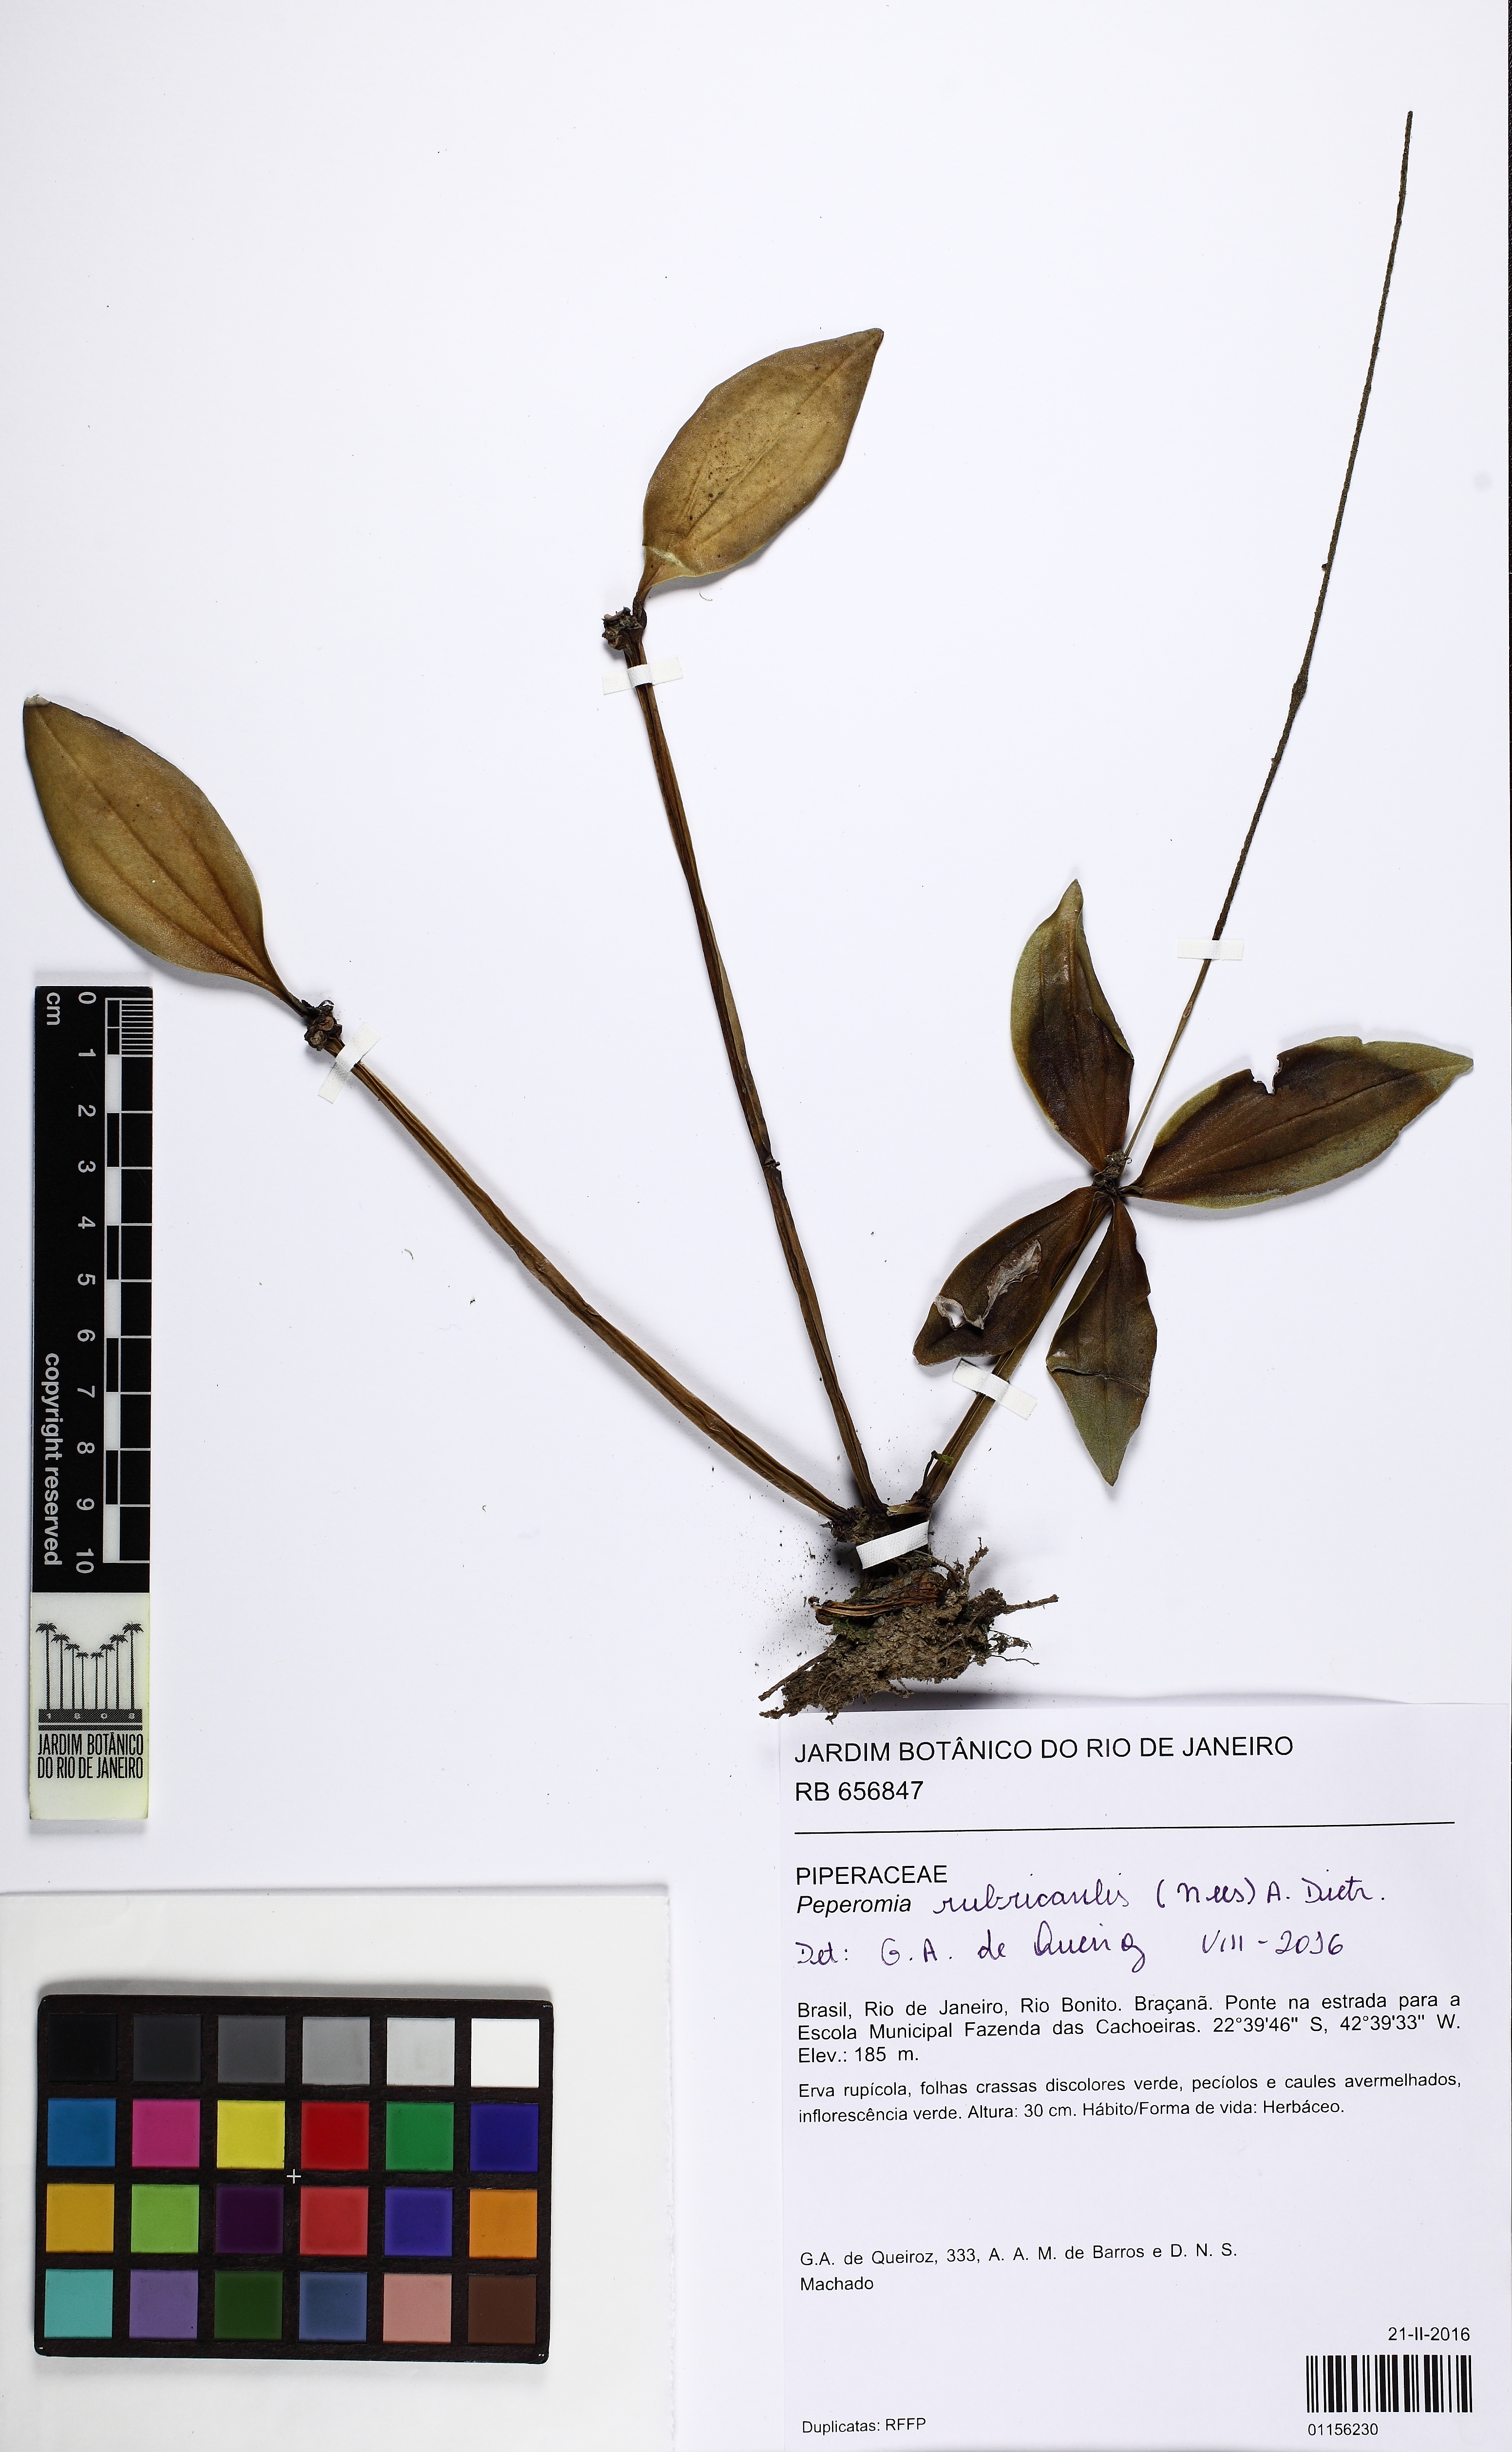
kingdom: Plantae
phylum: Tracheophyta
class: Magnoliopsida
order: Piperales
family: Piperaceae
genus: Peperomia
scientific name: Peperomia rubricaulis
